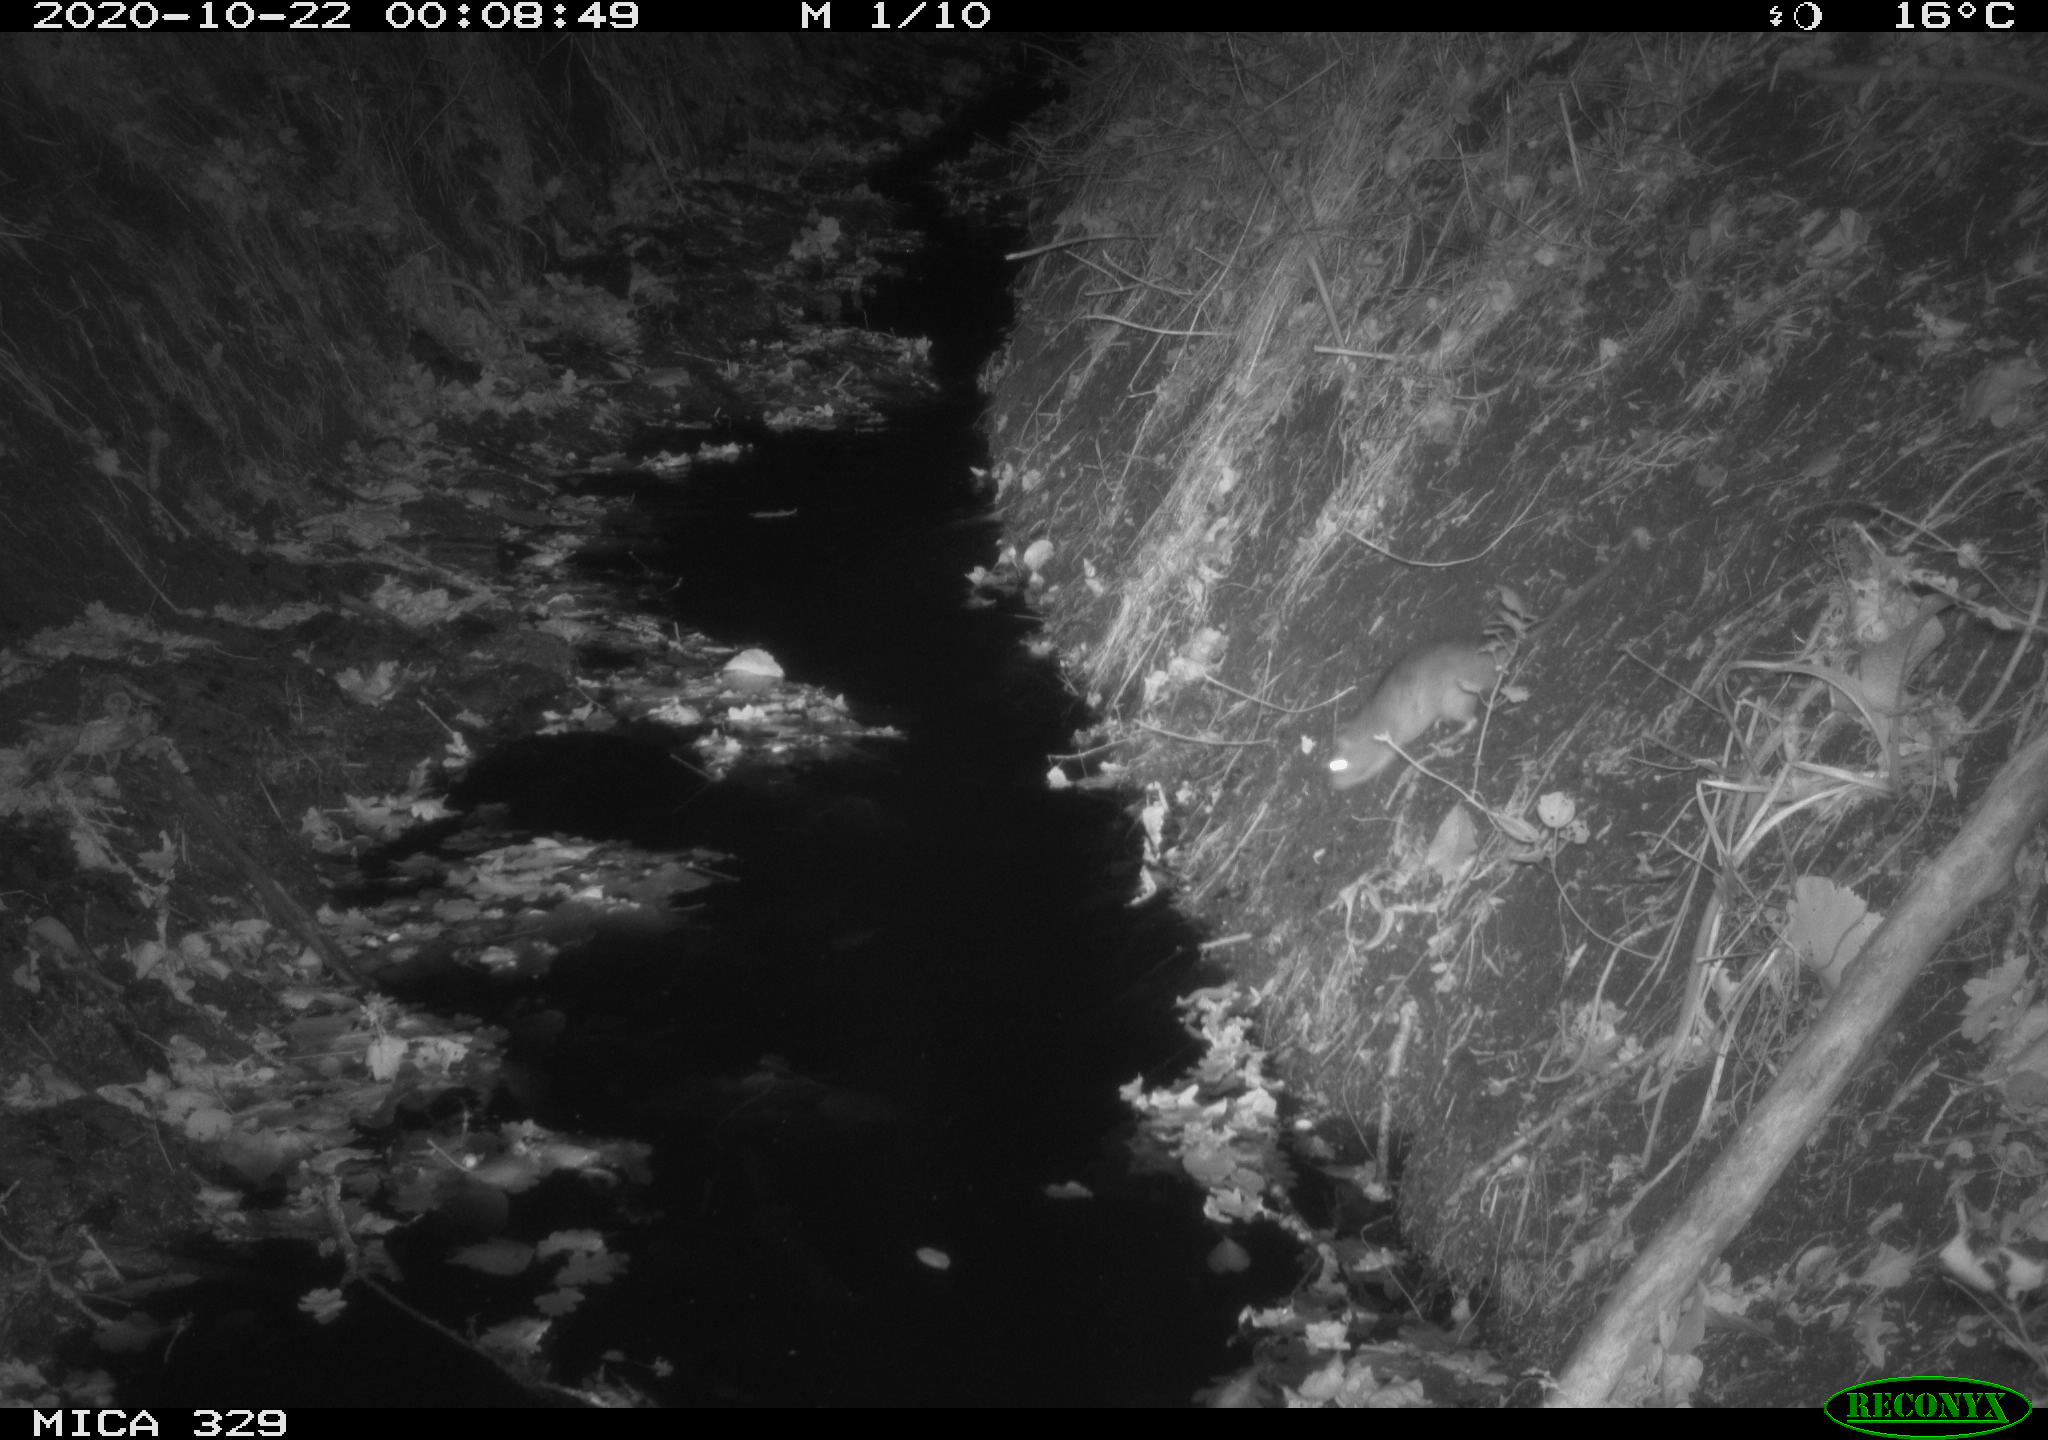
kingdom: Animalia
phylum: Chordata
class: Mammalia
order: Rodentia
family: Muridae
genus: Rattus
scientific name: Rattus norvegicus
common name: Brown rat
